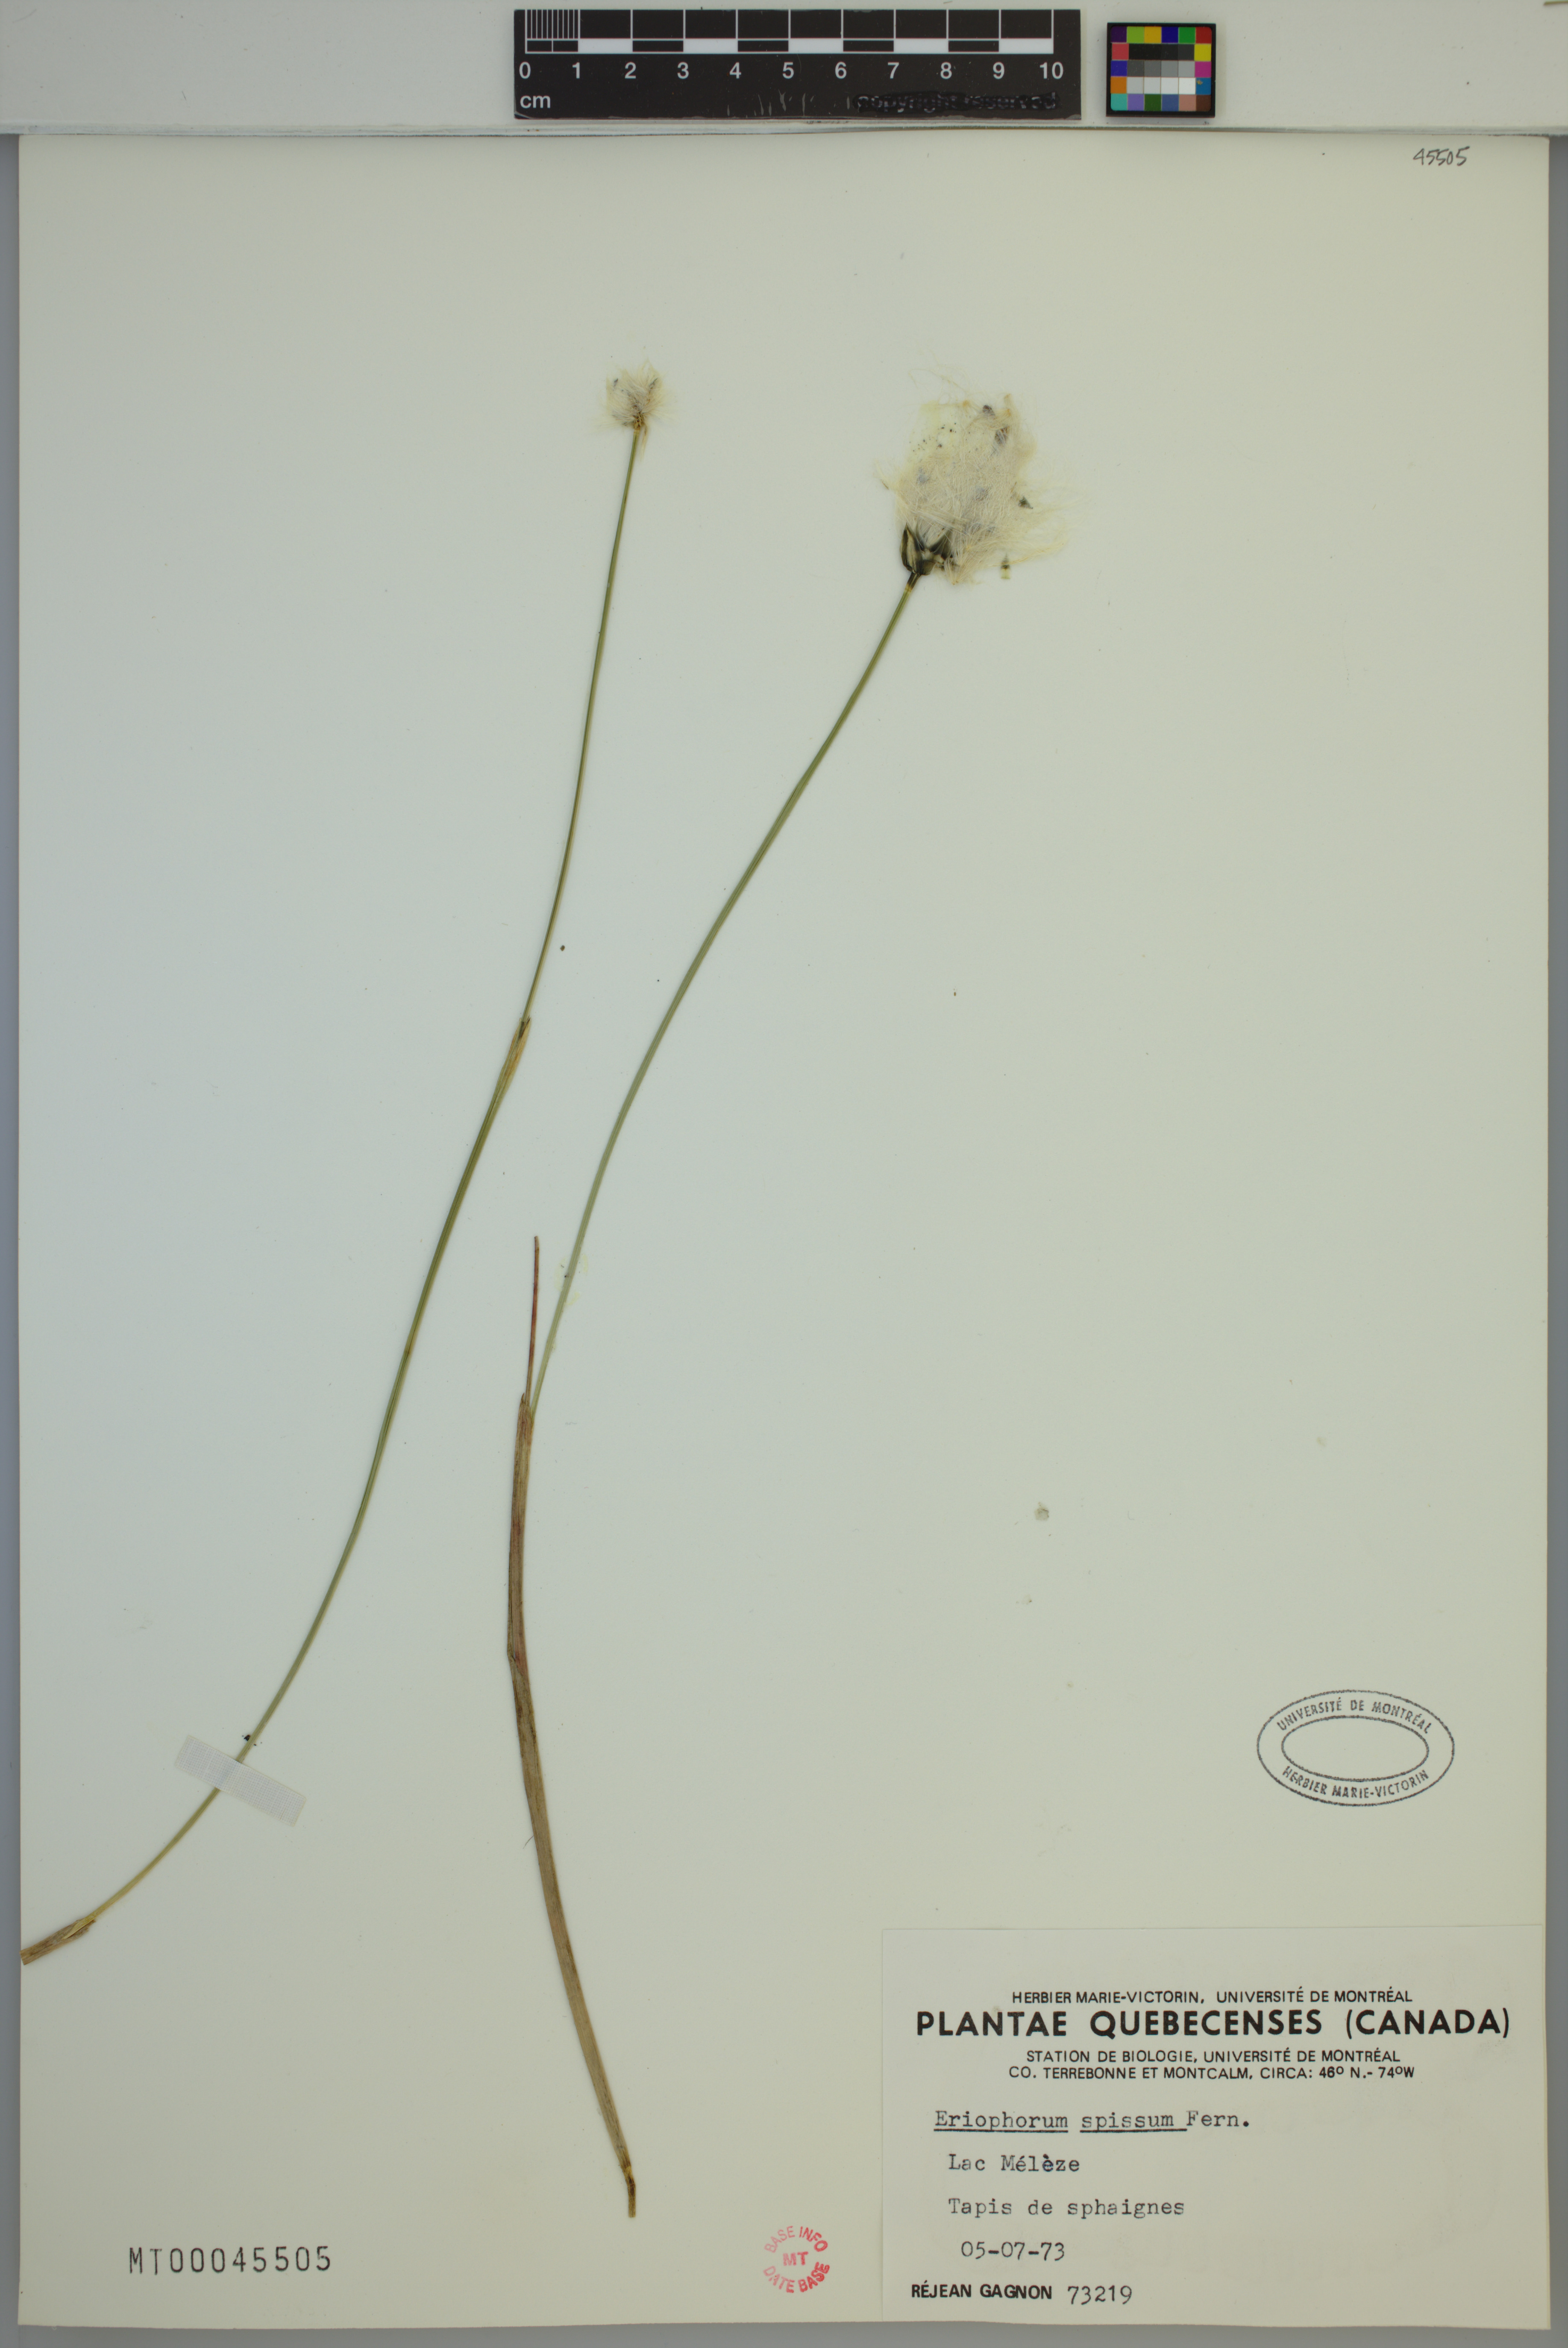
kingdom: Plantae
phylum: Tracheophyta
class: Liliopsida
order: Poales
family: Cyperaceae
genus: Eriophorum
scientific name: Eriophorum vaginatum
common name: Hare's-tail cottongrass
